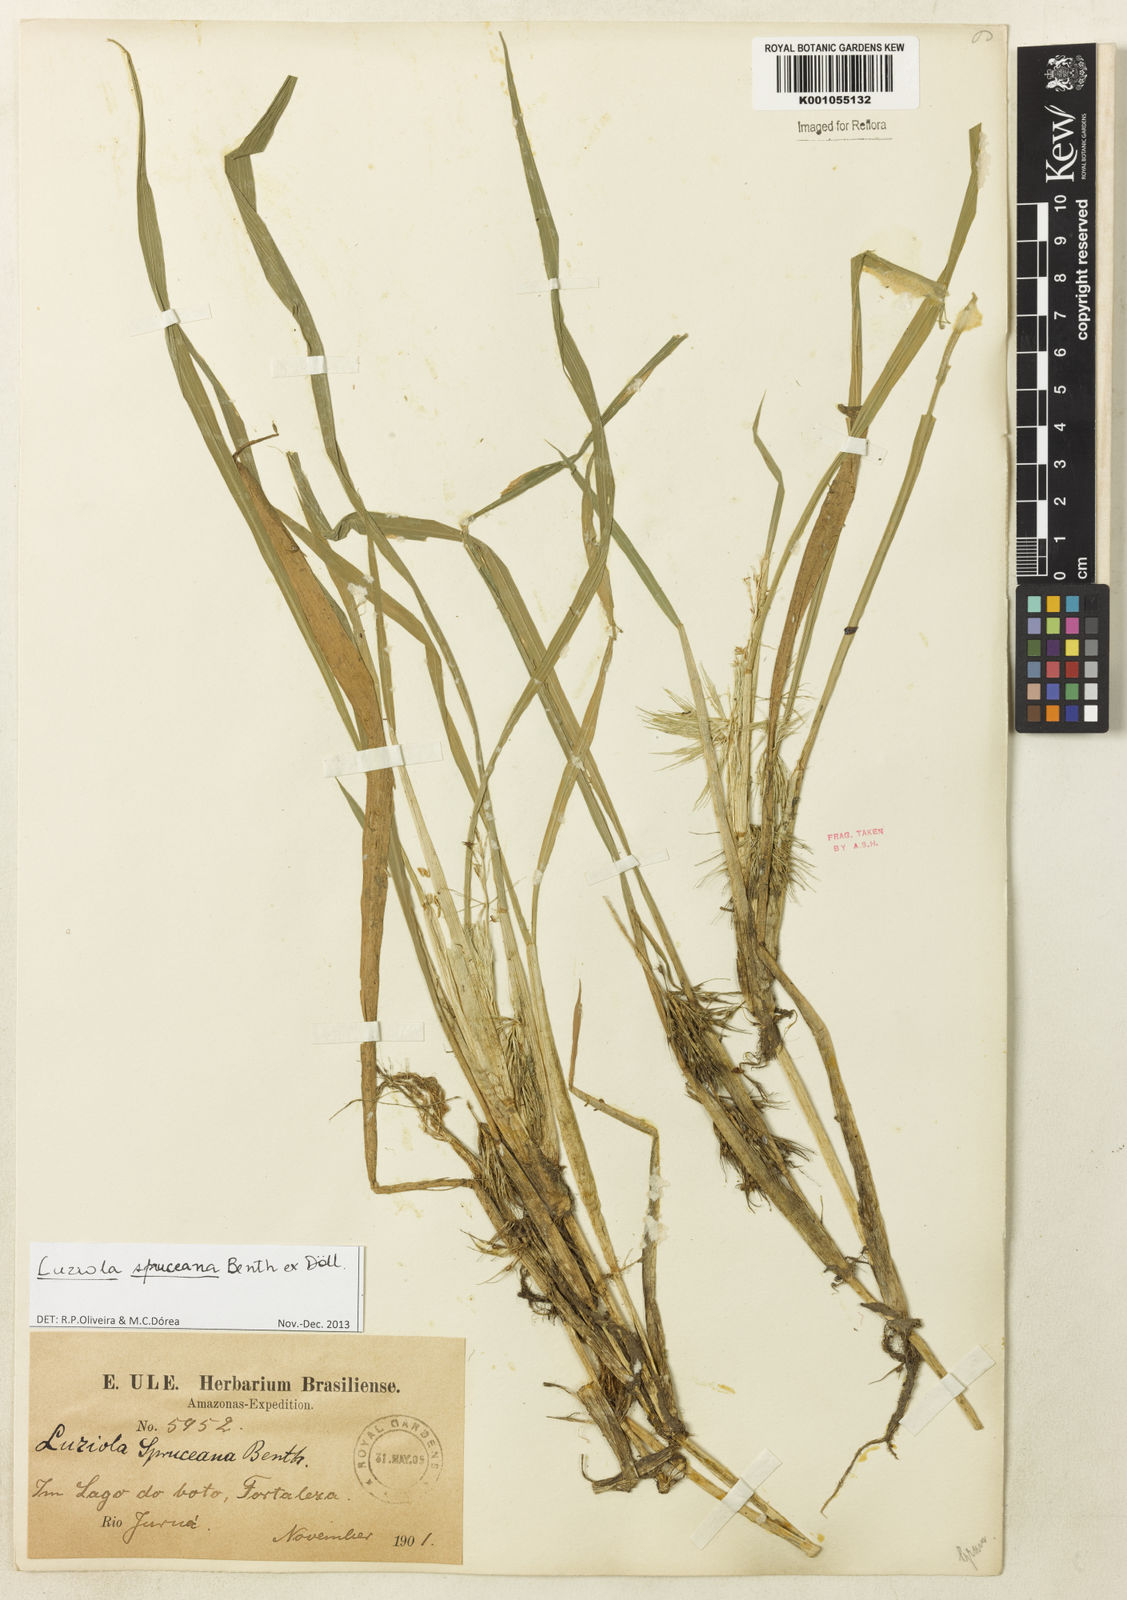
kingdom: Plantae
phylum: Tracheophyta
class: Liliopsida
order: Poales
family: Poaceae
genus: Luziola
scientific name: Luziola
